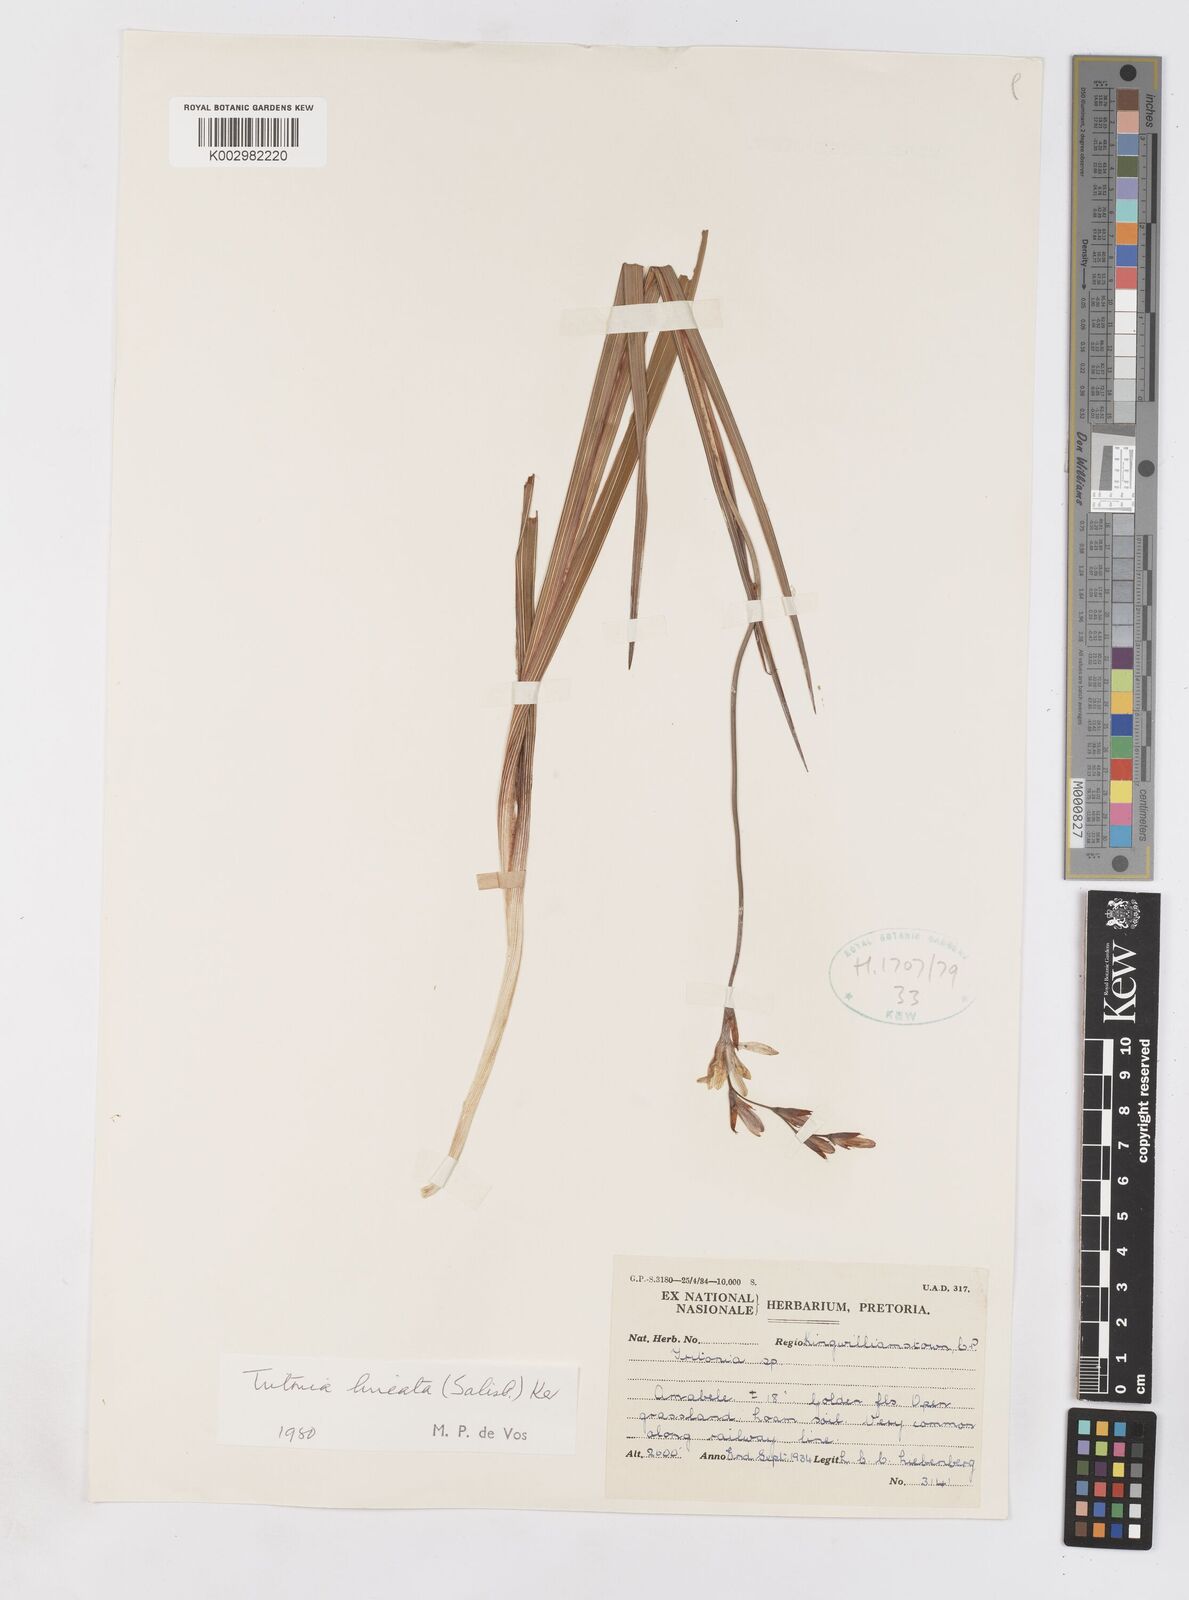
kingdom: Plantae
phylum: Tracheophyta
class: Liliopsida
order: Asparagales
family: Iridaceae
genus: Tritonia
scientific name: Tritonia gladiolaris
